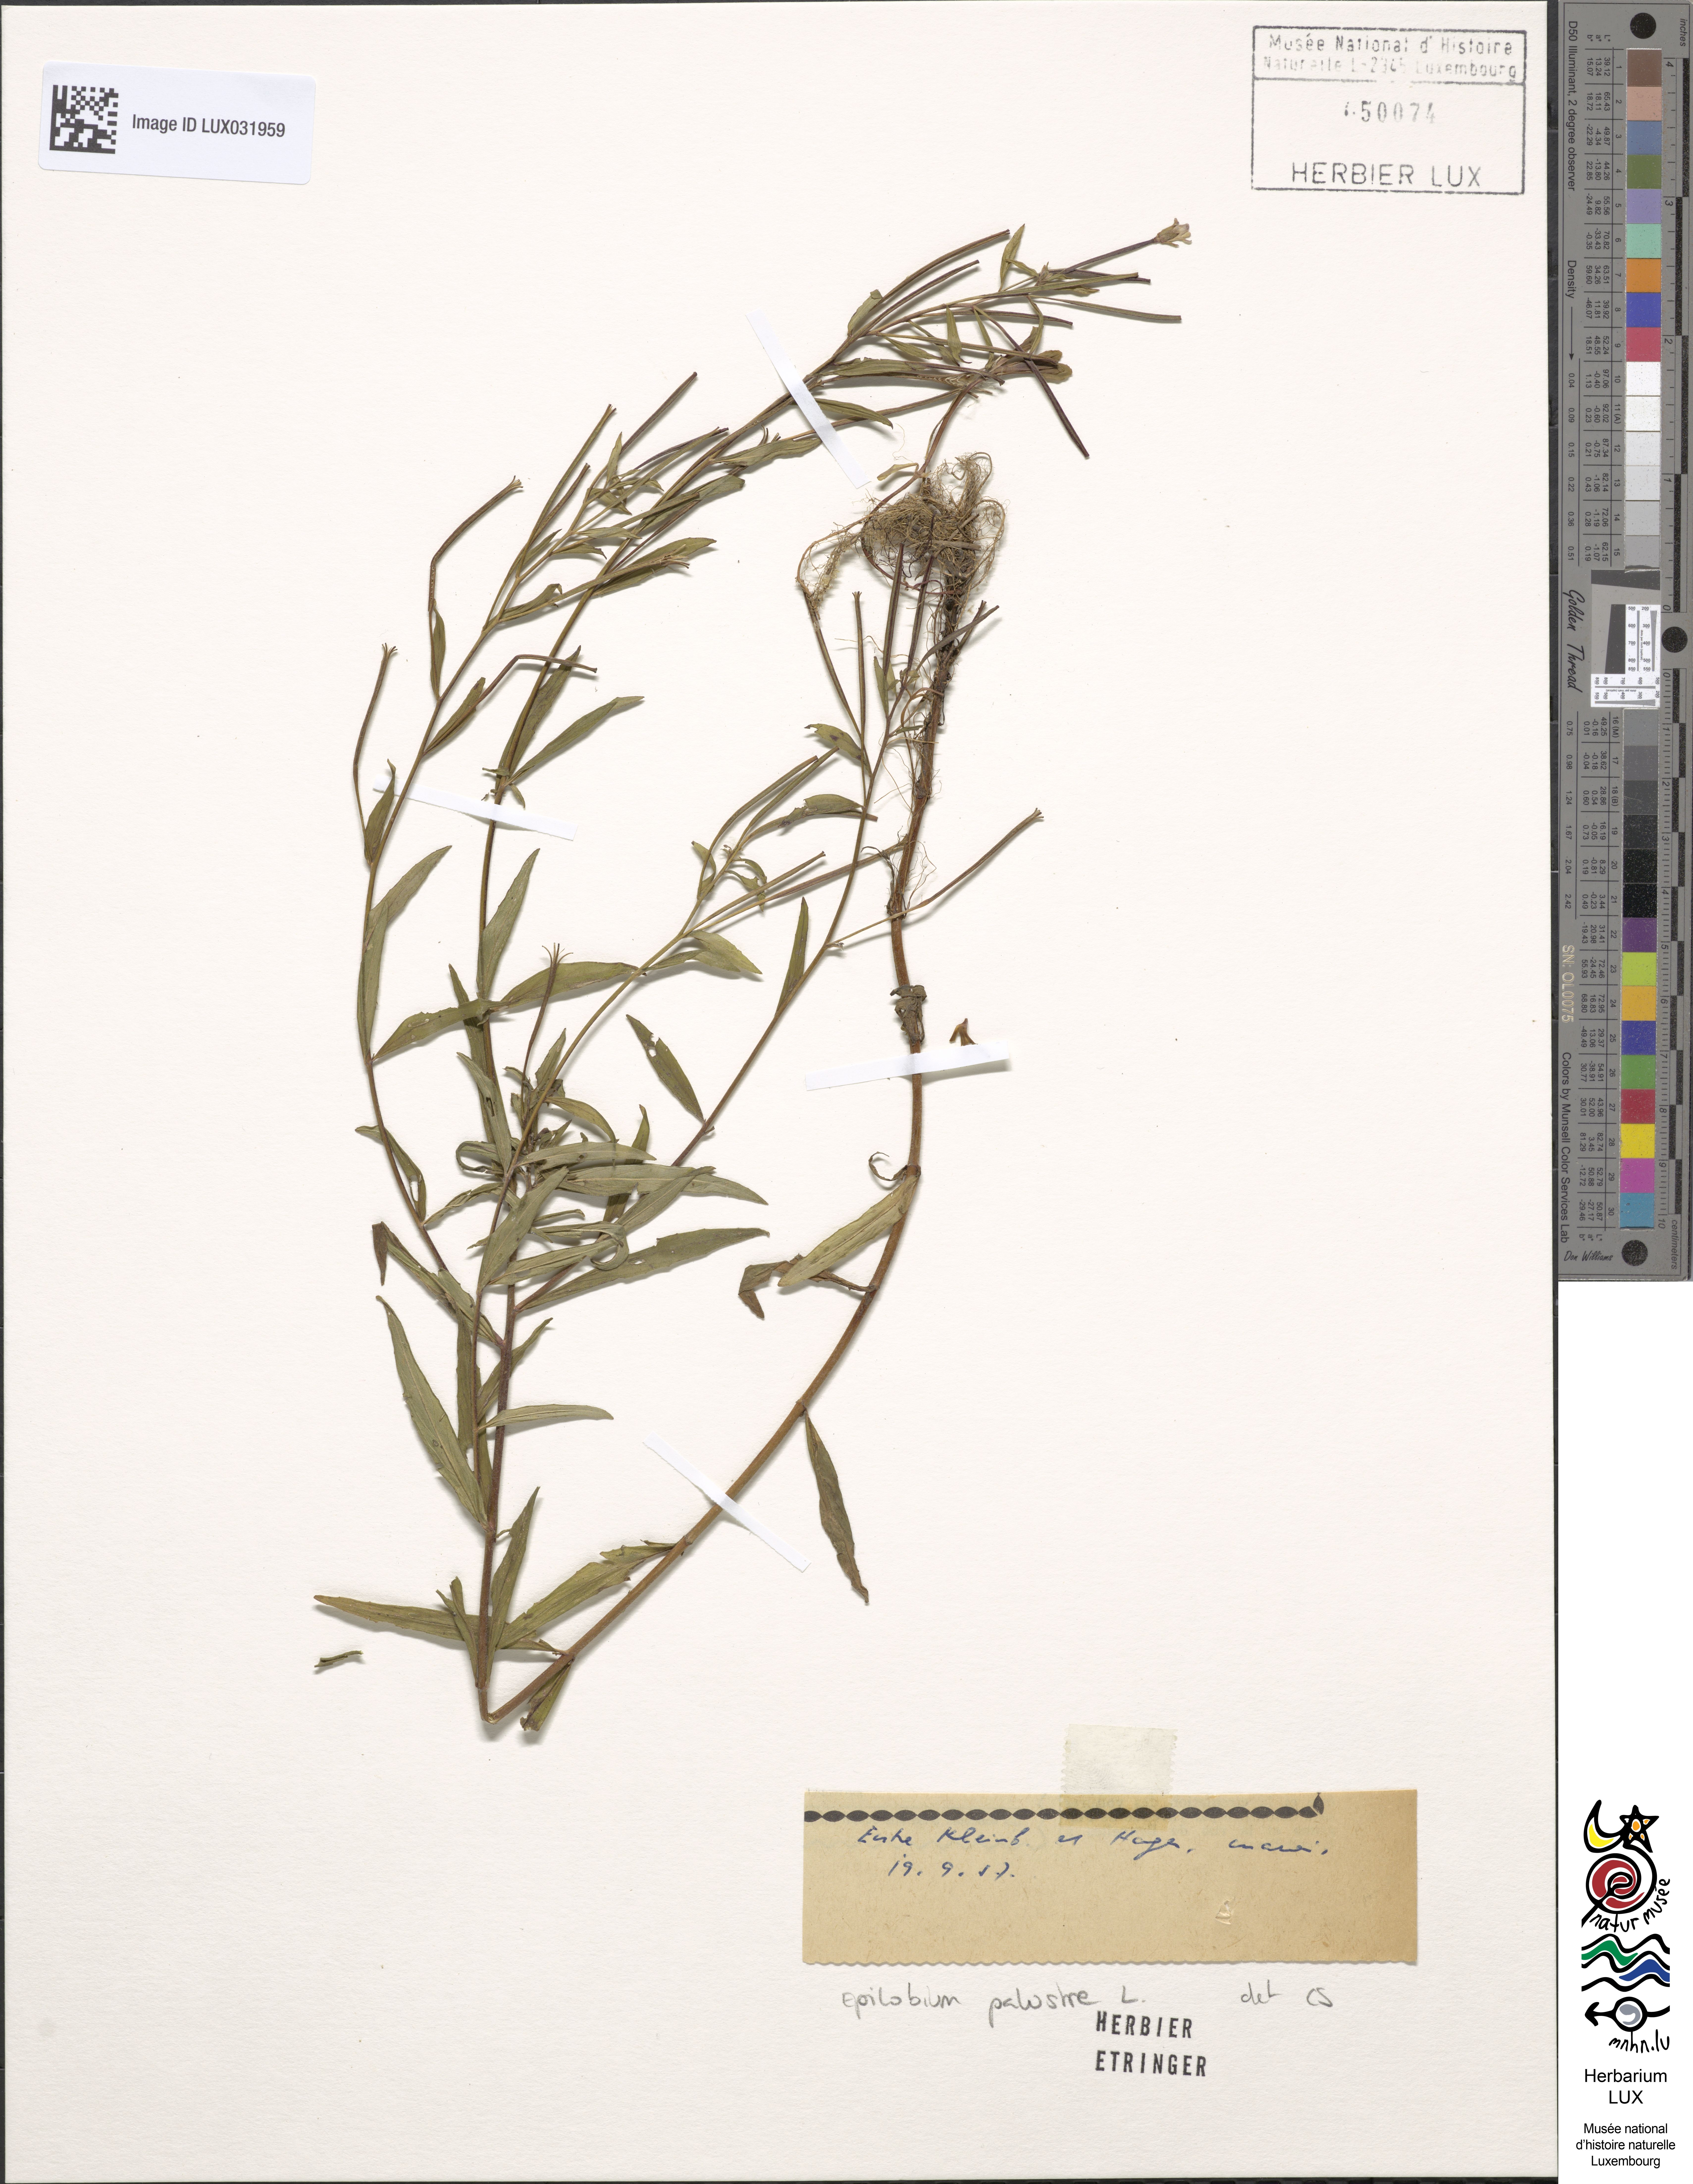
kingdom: Plantae
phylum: Tracheophyta
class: Magnoliopsida
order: Myrtales
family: Onagraceae
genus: Epilobium
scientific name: Epilobium palustre
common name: Marsh willowherb
